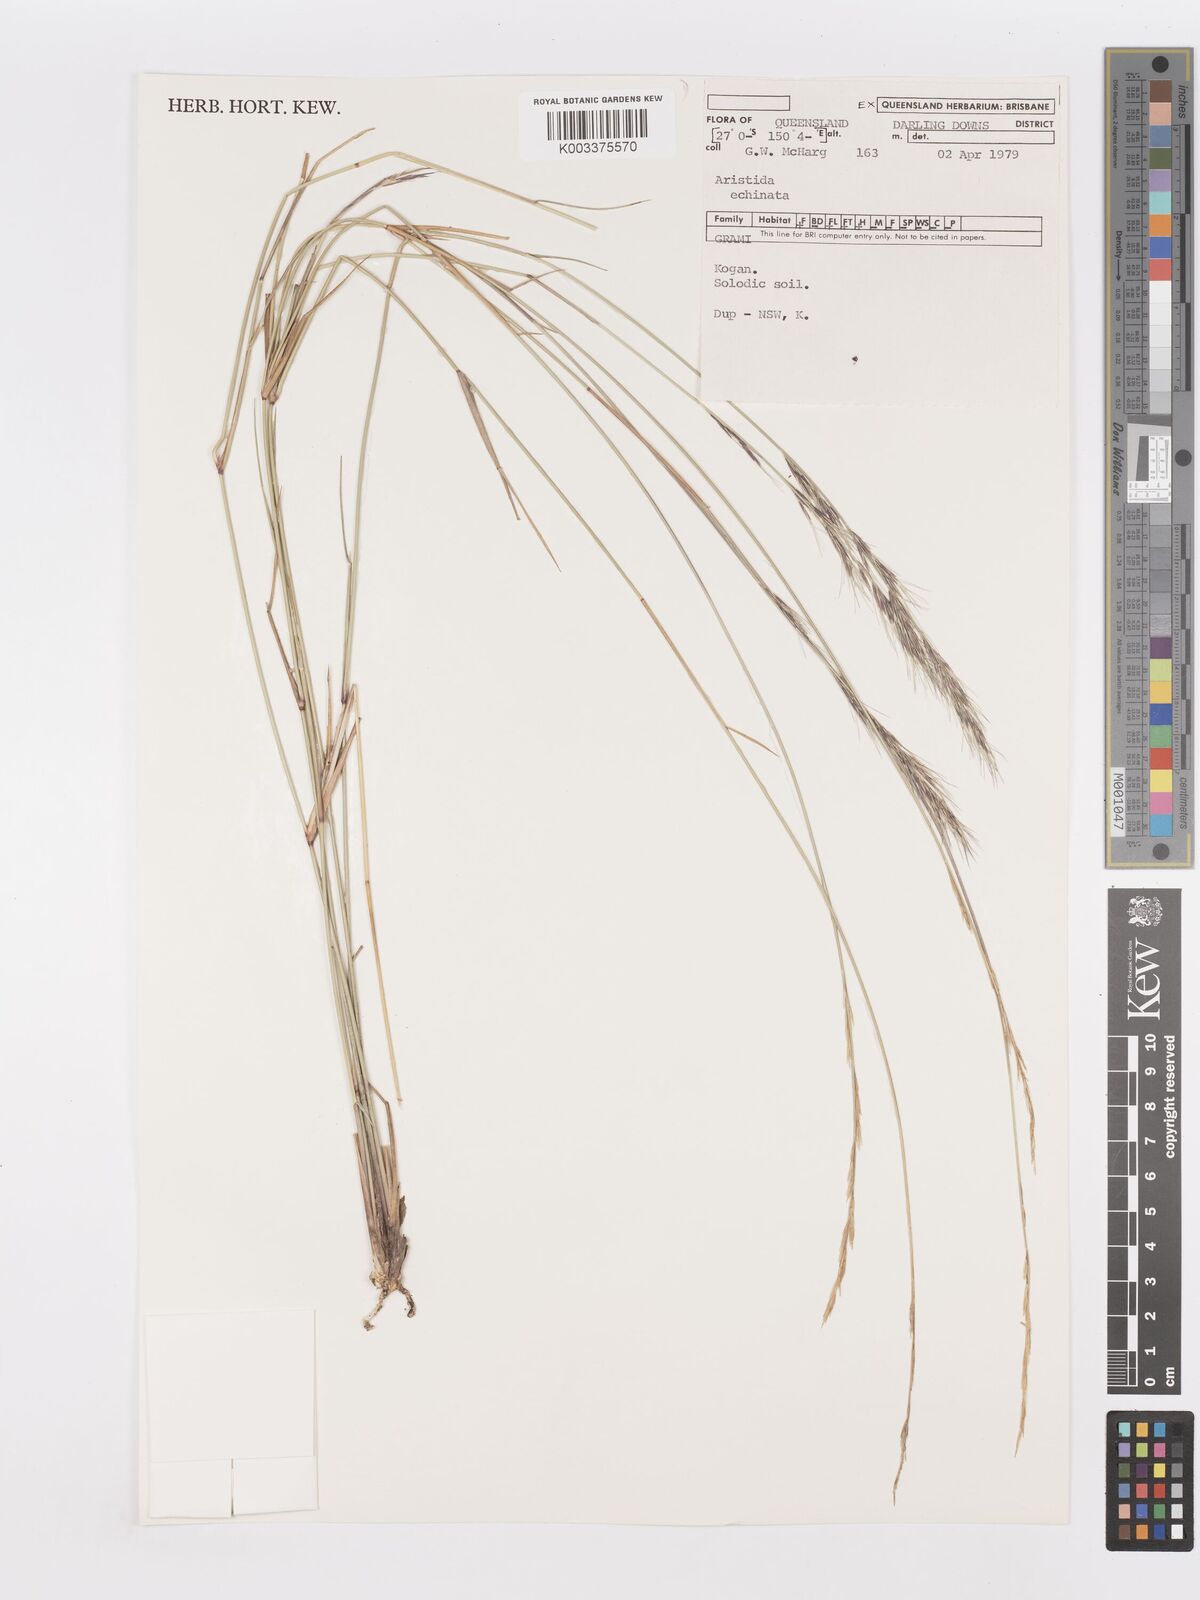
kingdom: Plantae
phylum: Tracheophyta
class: Liliopsida
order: Poales
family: Poaceae
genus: Aristida
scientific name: Aristida echinata
